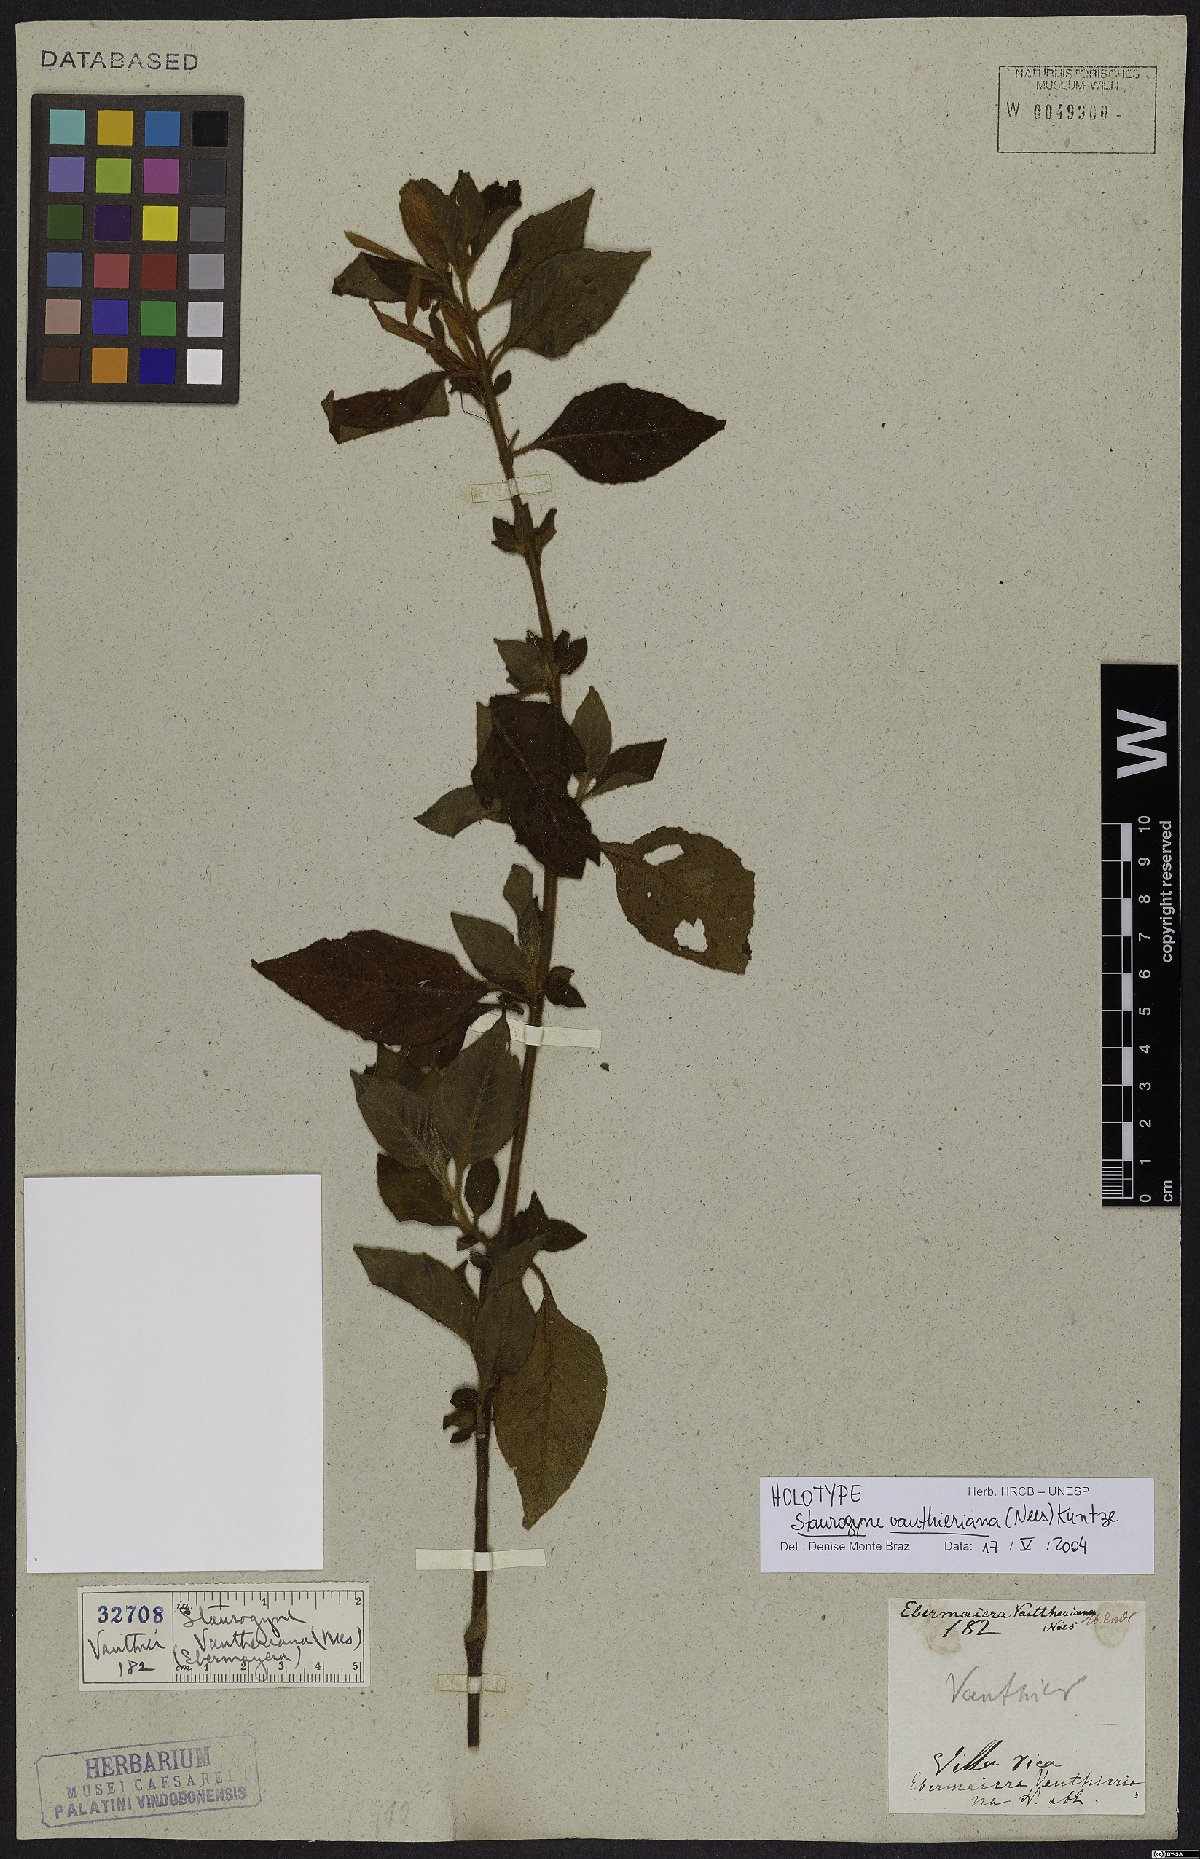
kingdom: Plantae
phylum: Tracheophyta
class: Magnoliopsida
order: Lamiales
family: Acanthaceae
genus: Staurogyne
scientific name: Staurogyne vauthieriana
